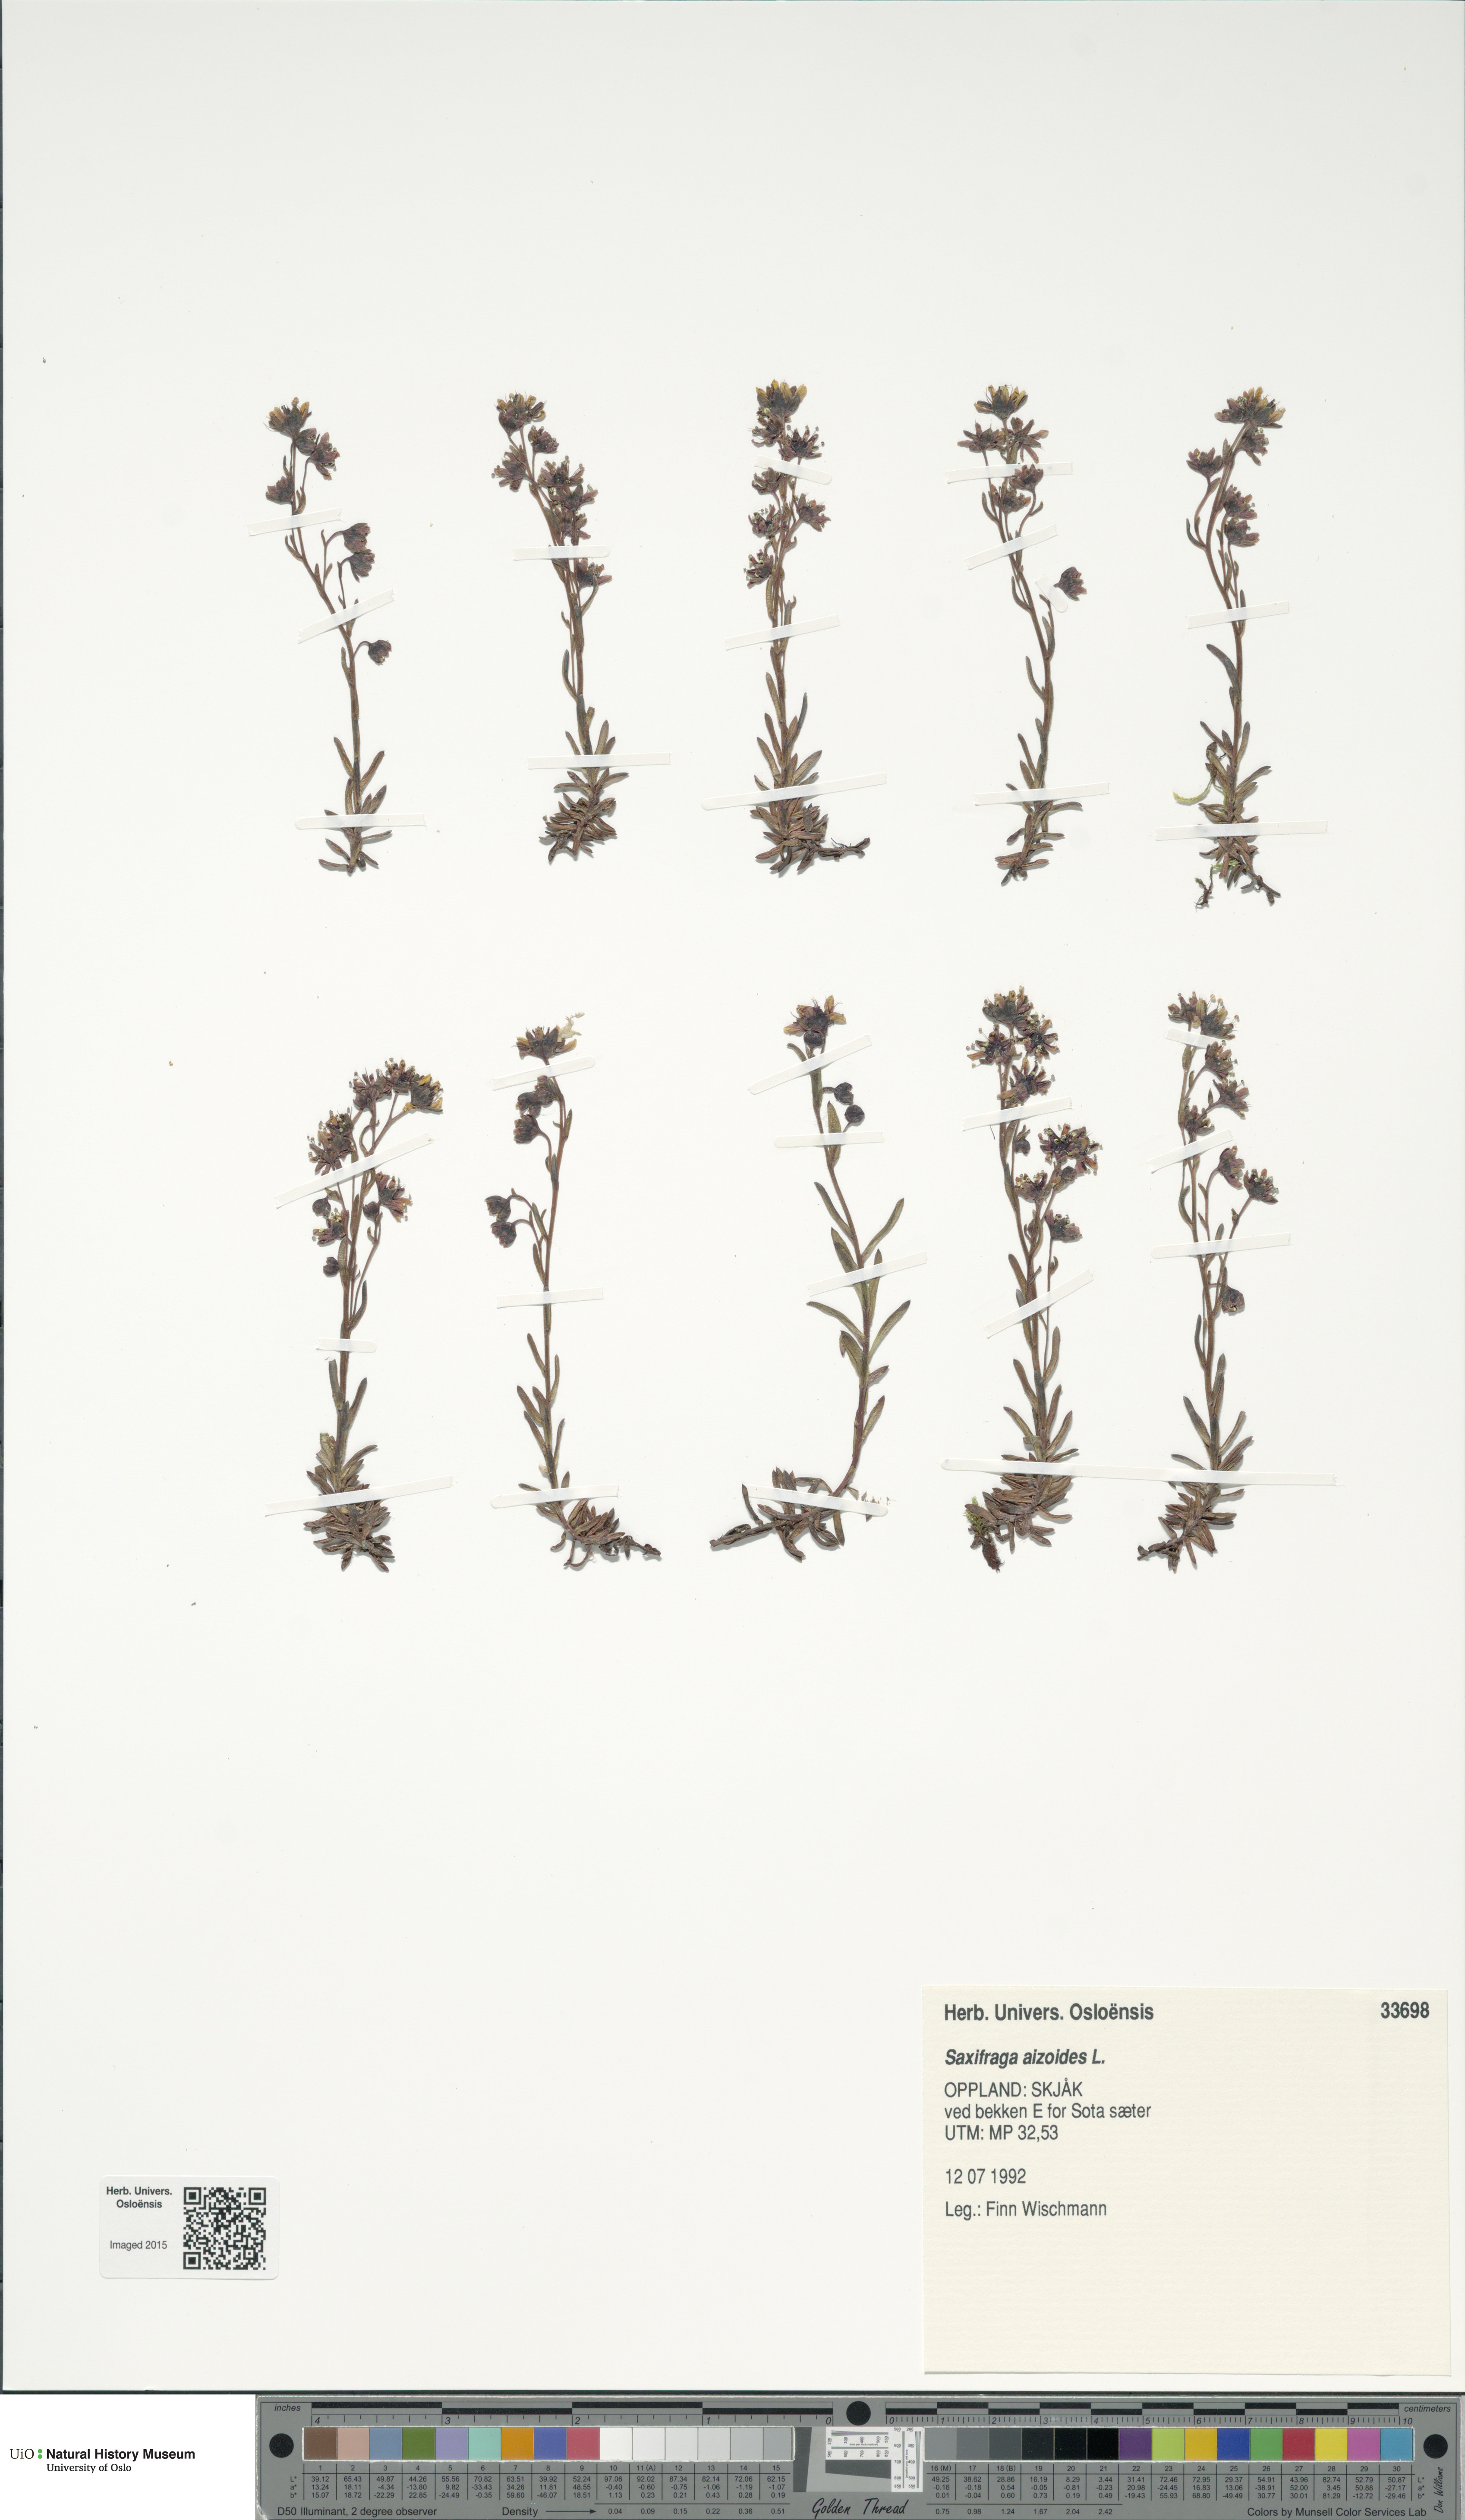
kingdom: Plantae
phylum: Tracheophyta
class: Magnoliopsida
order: Saxifragales
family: Saxifragaceae
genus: Saxifraga
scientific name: Saxifraga aizoides
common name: Yellow mountain saxifrage
